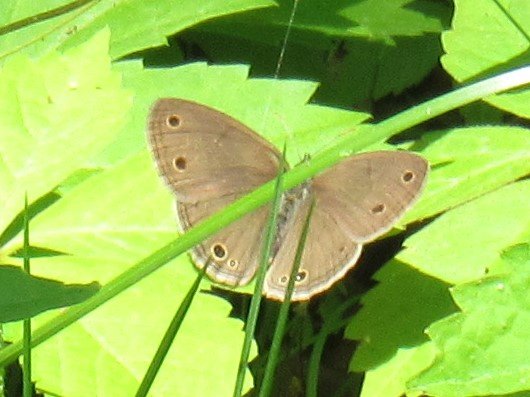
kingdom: Animalia
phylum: Arthropoda
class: Insecta
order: Lepidoptera
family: Nymphalidae
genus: Euptychia
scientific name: Euptychia cymela
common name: Little Wood Satyr
